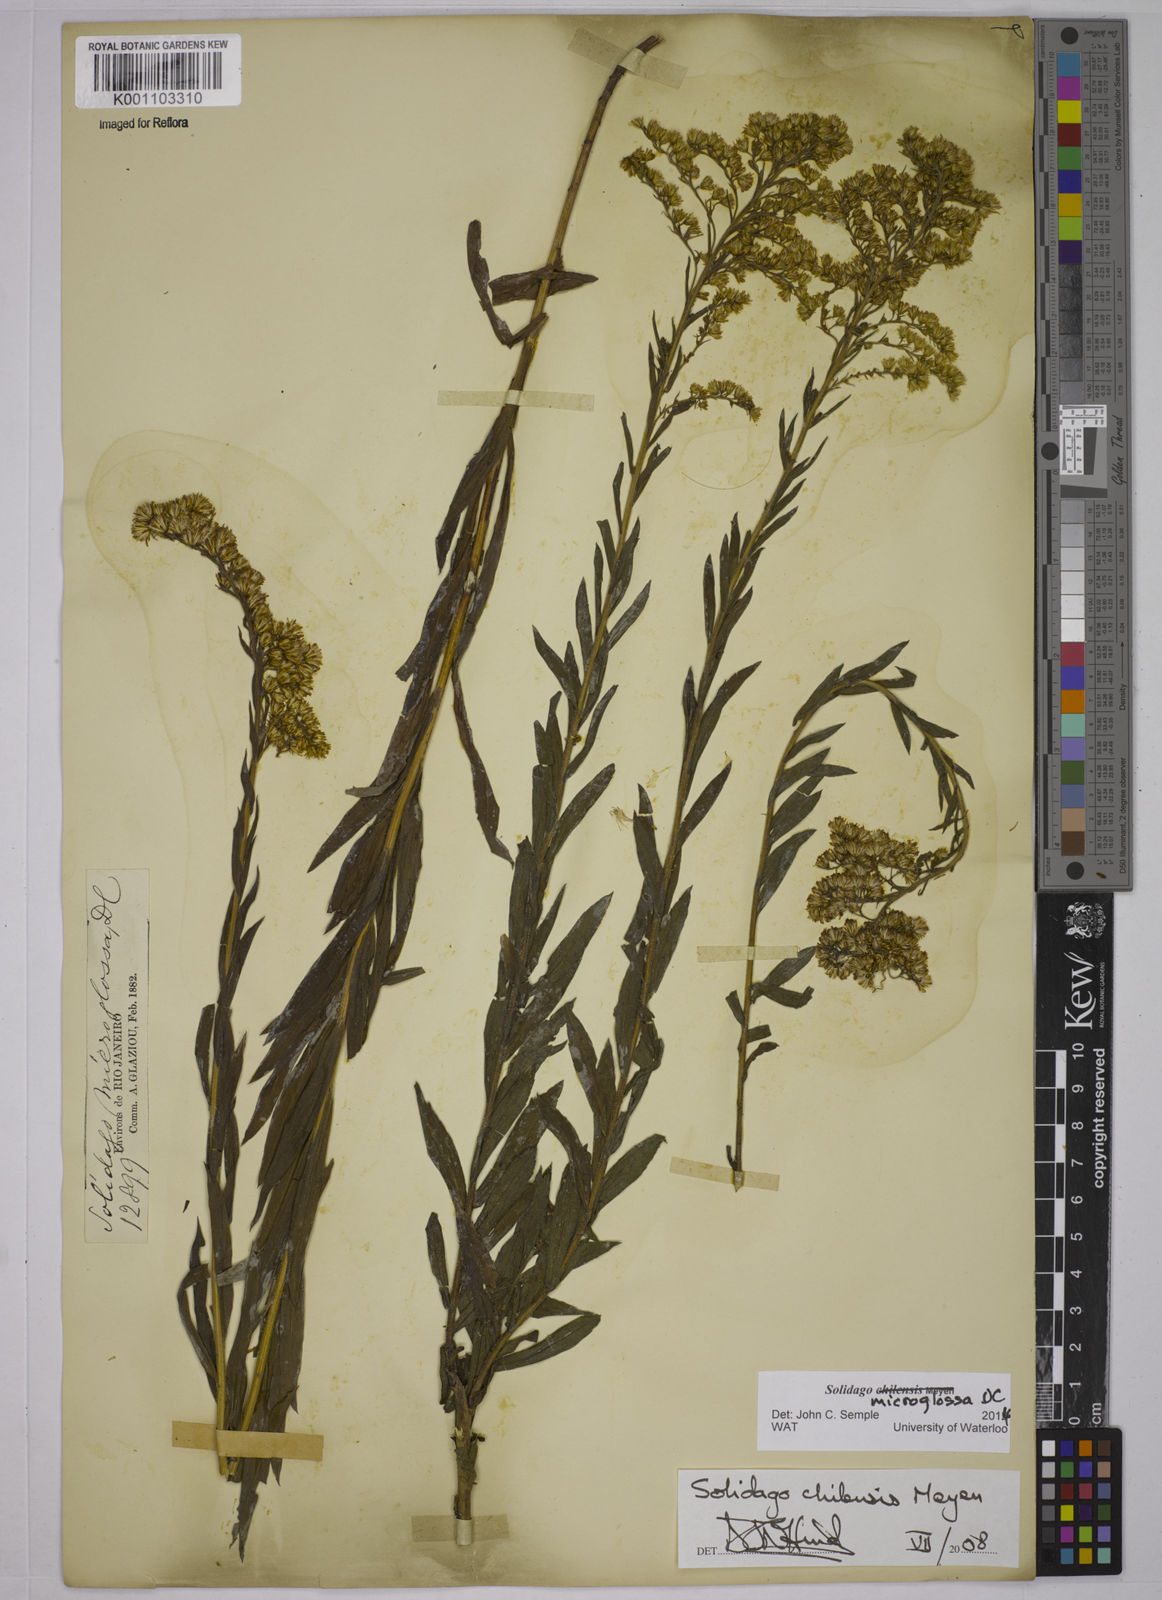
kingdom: Plantae
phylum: Tracheophyta
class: Magnoliopsida
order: Asterales
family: Asteraceae
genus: Solidago
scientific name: Solidago chilensis
